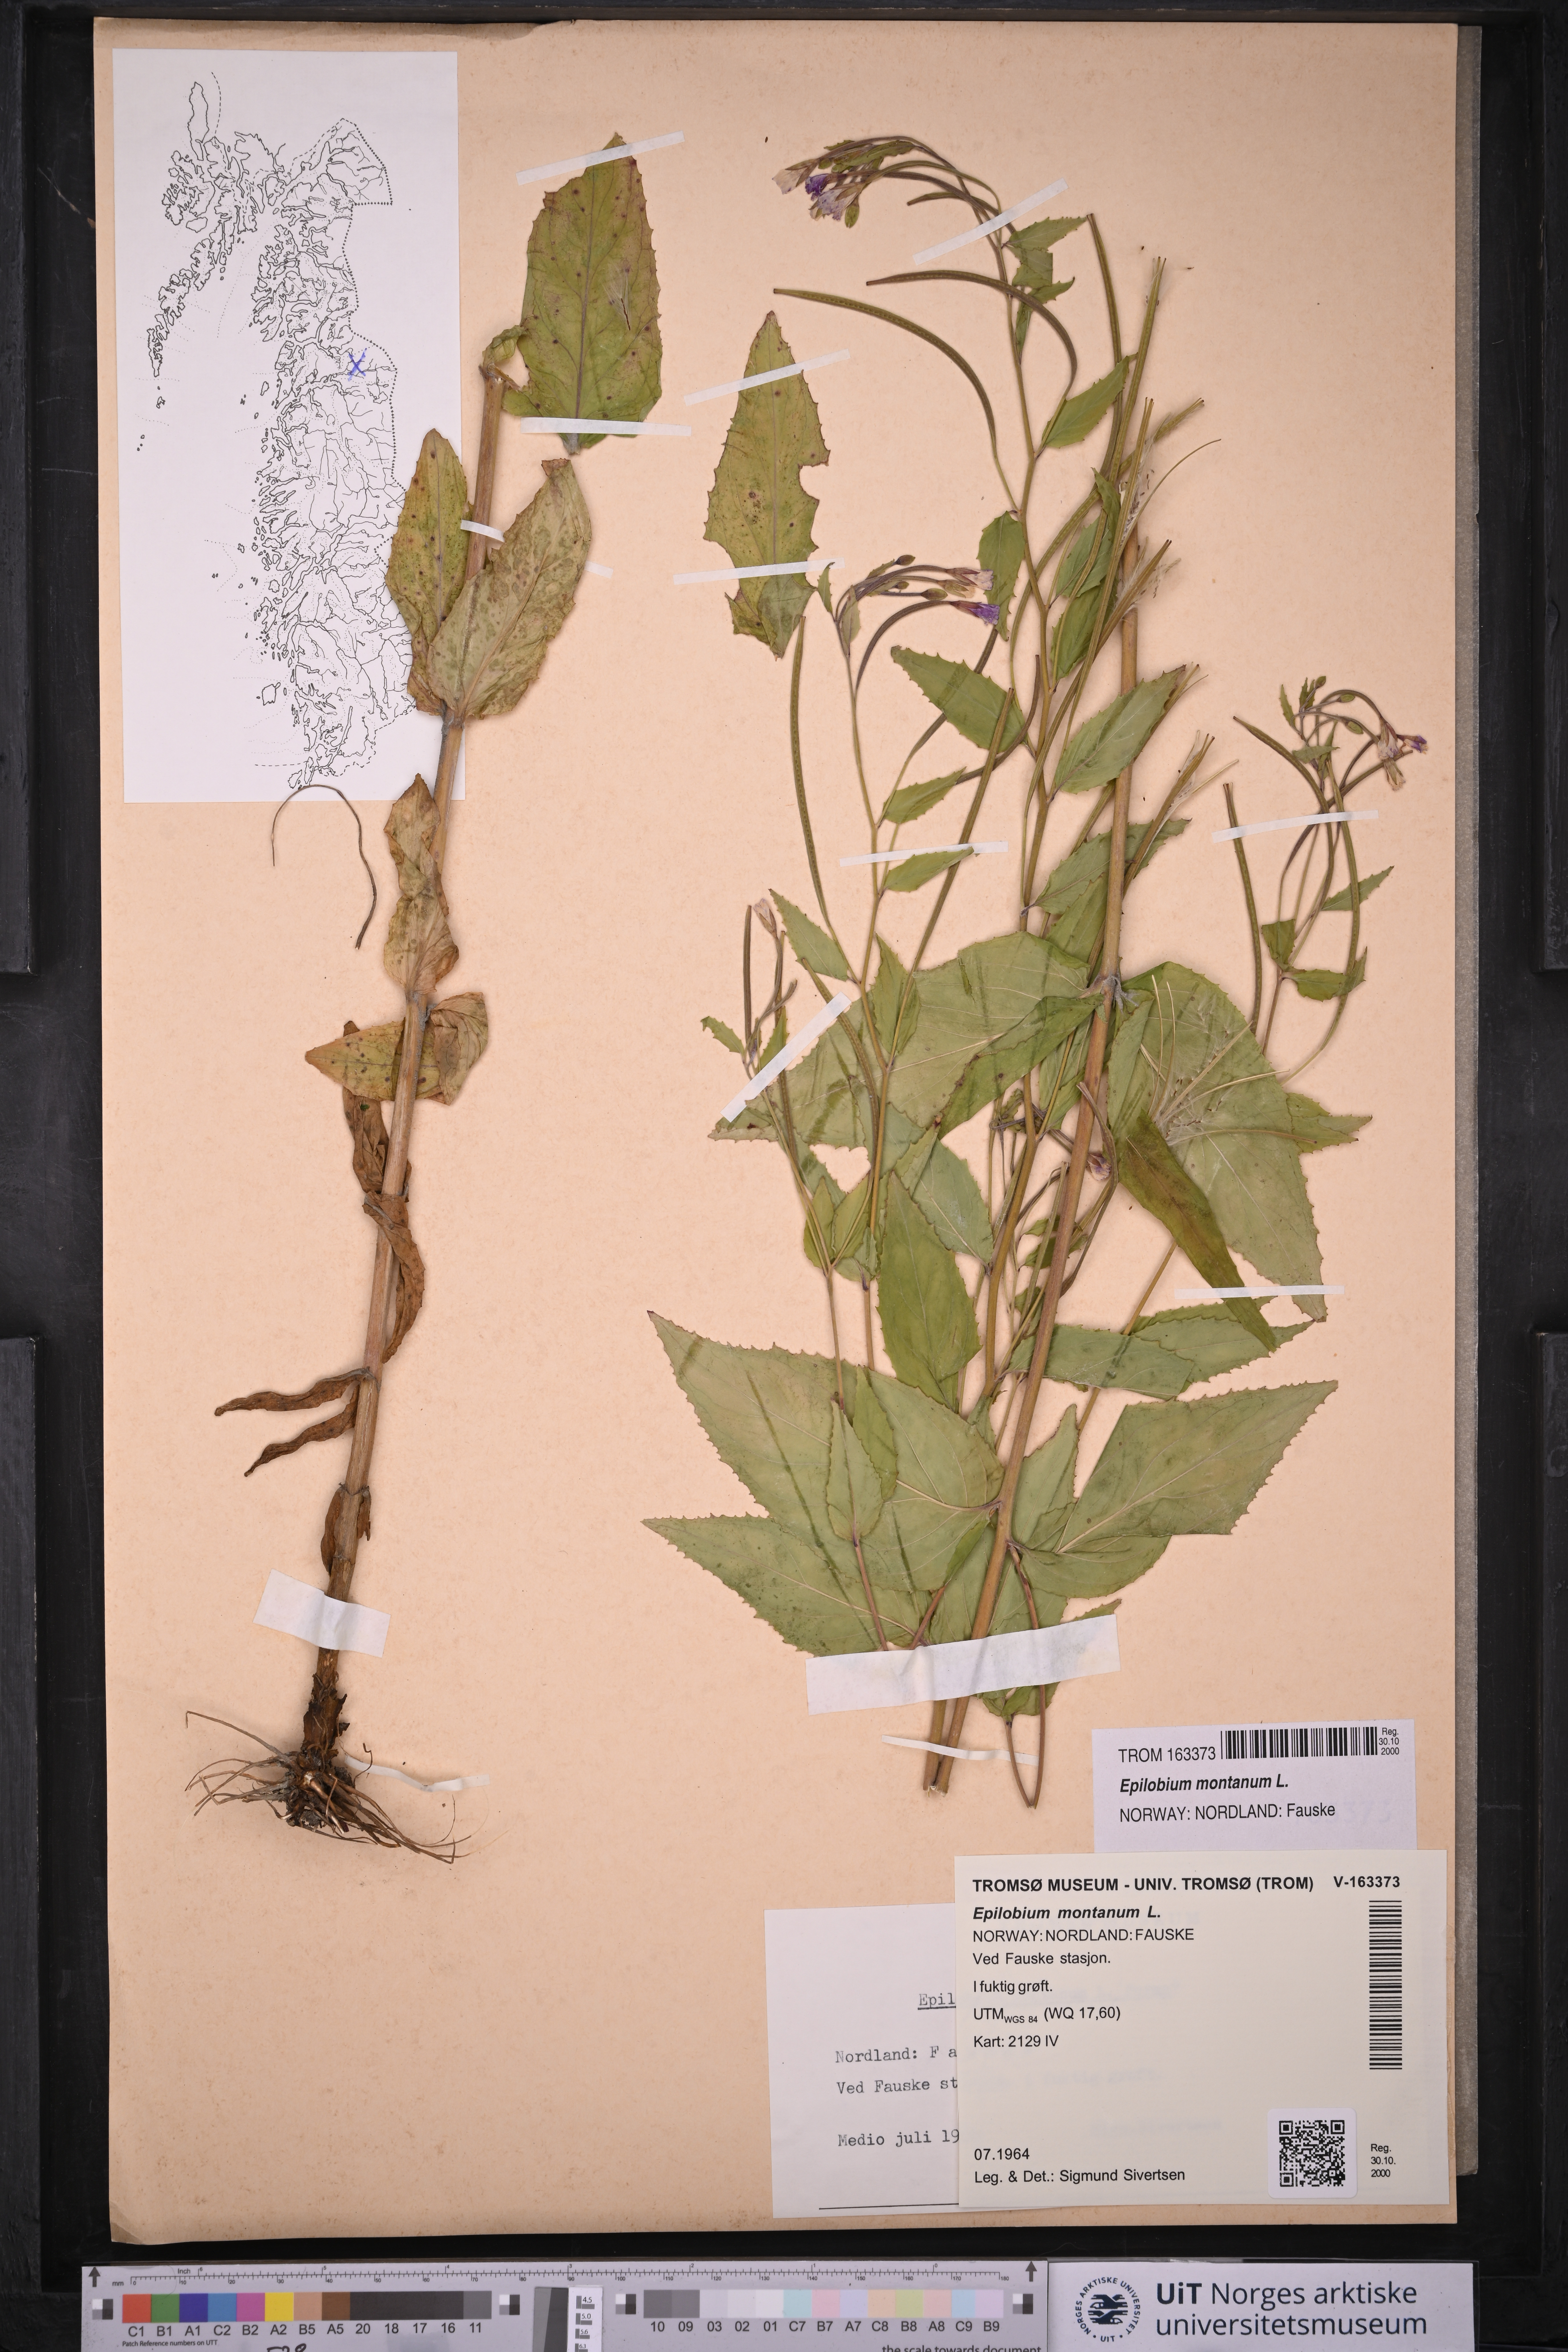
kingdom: Plantae
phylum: Tracheophyta
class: Magnoliopsida
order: Myrtales
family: Onagraceae
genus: Epilobium
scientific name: Epilobium montanum
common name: Broad-leaved willowherb
